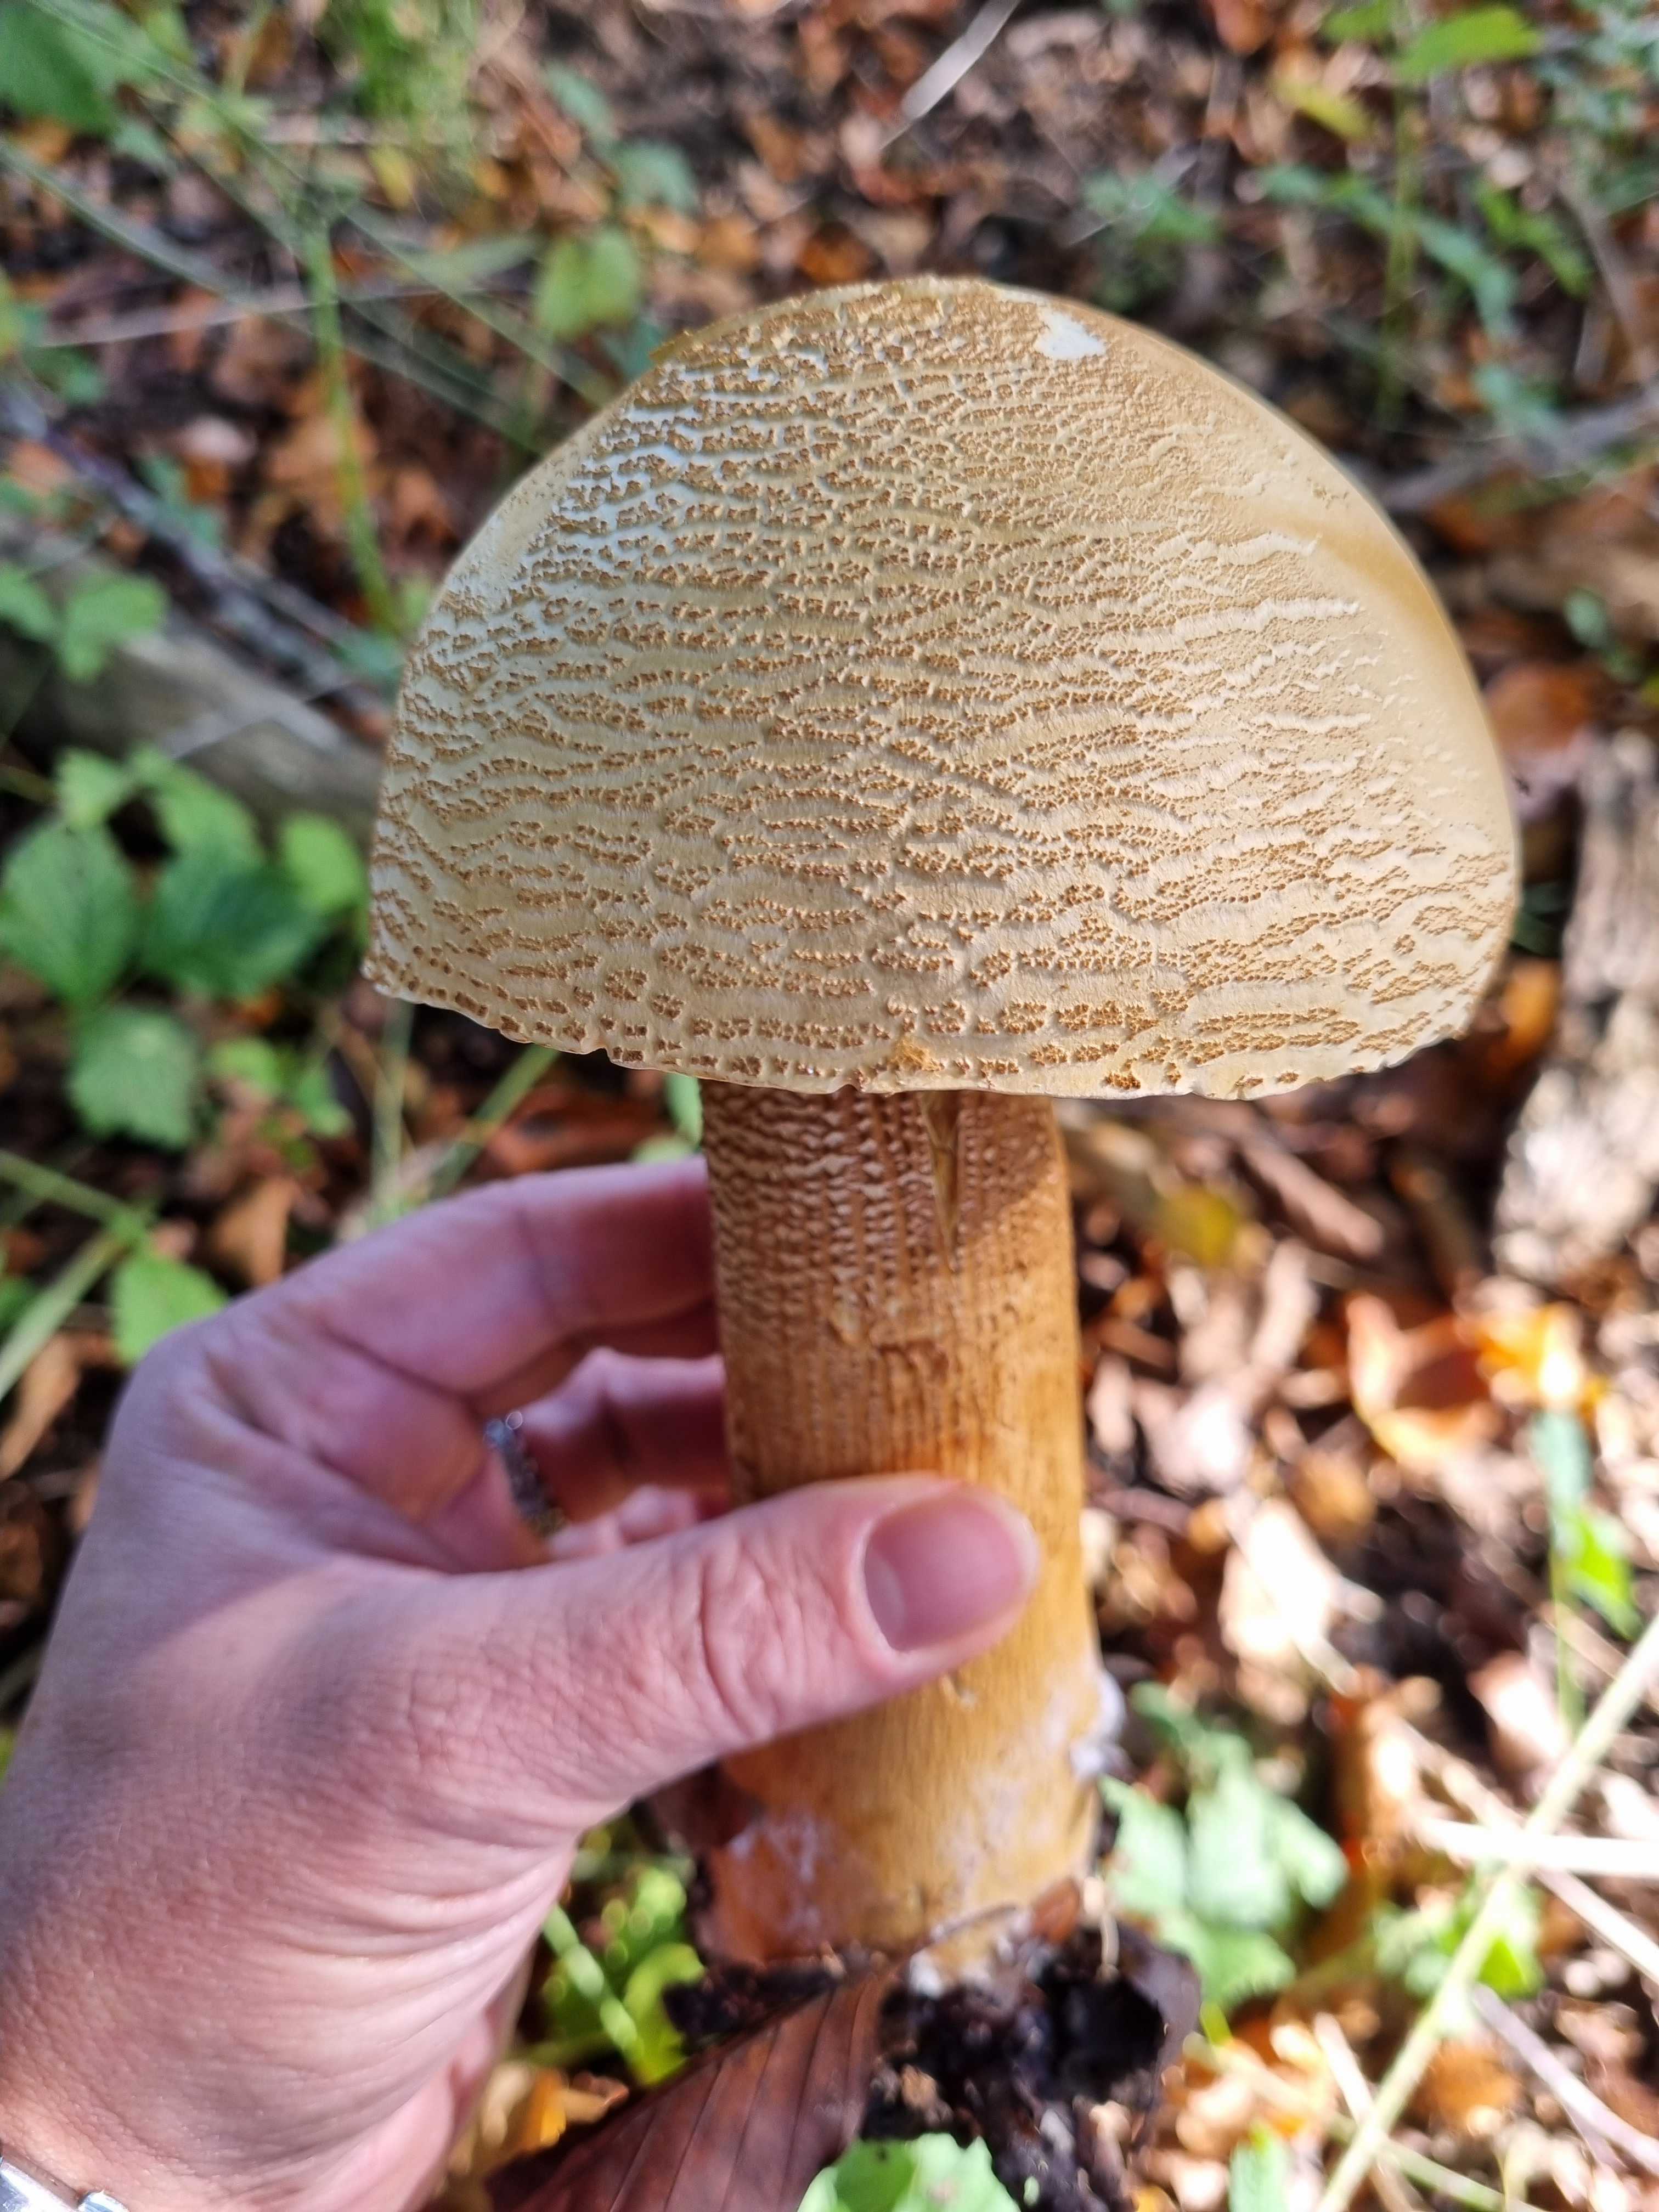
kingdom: Fungi
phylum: Basidiomycota
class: Agaricomycetes
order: Agaricales
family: Tricholomataceae
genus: Phaeolepiota
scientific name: Phaeolepiota aurea
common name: gyldenhat
